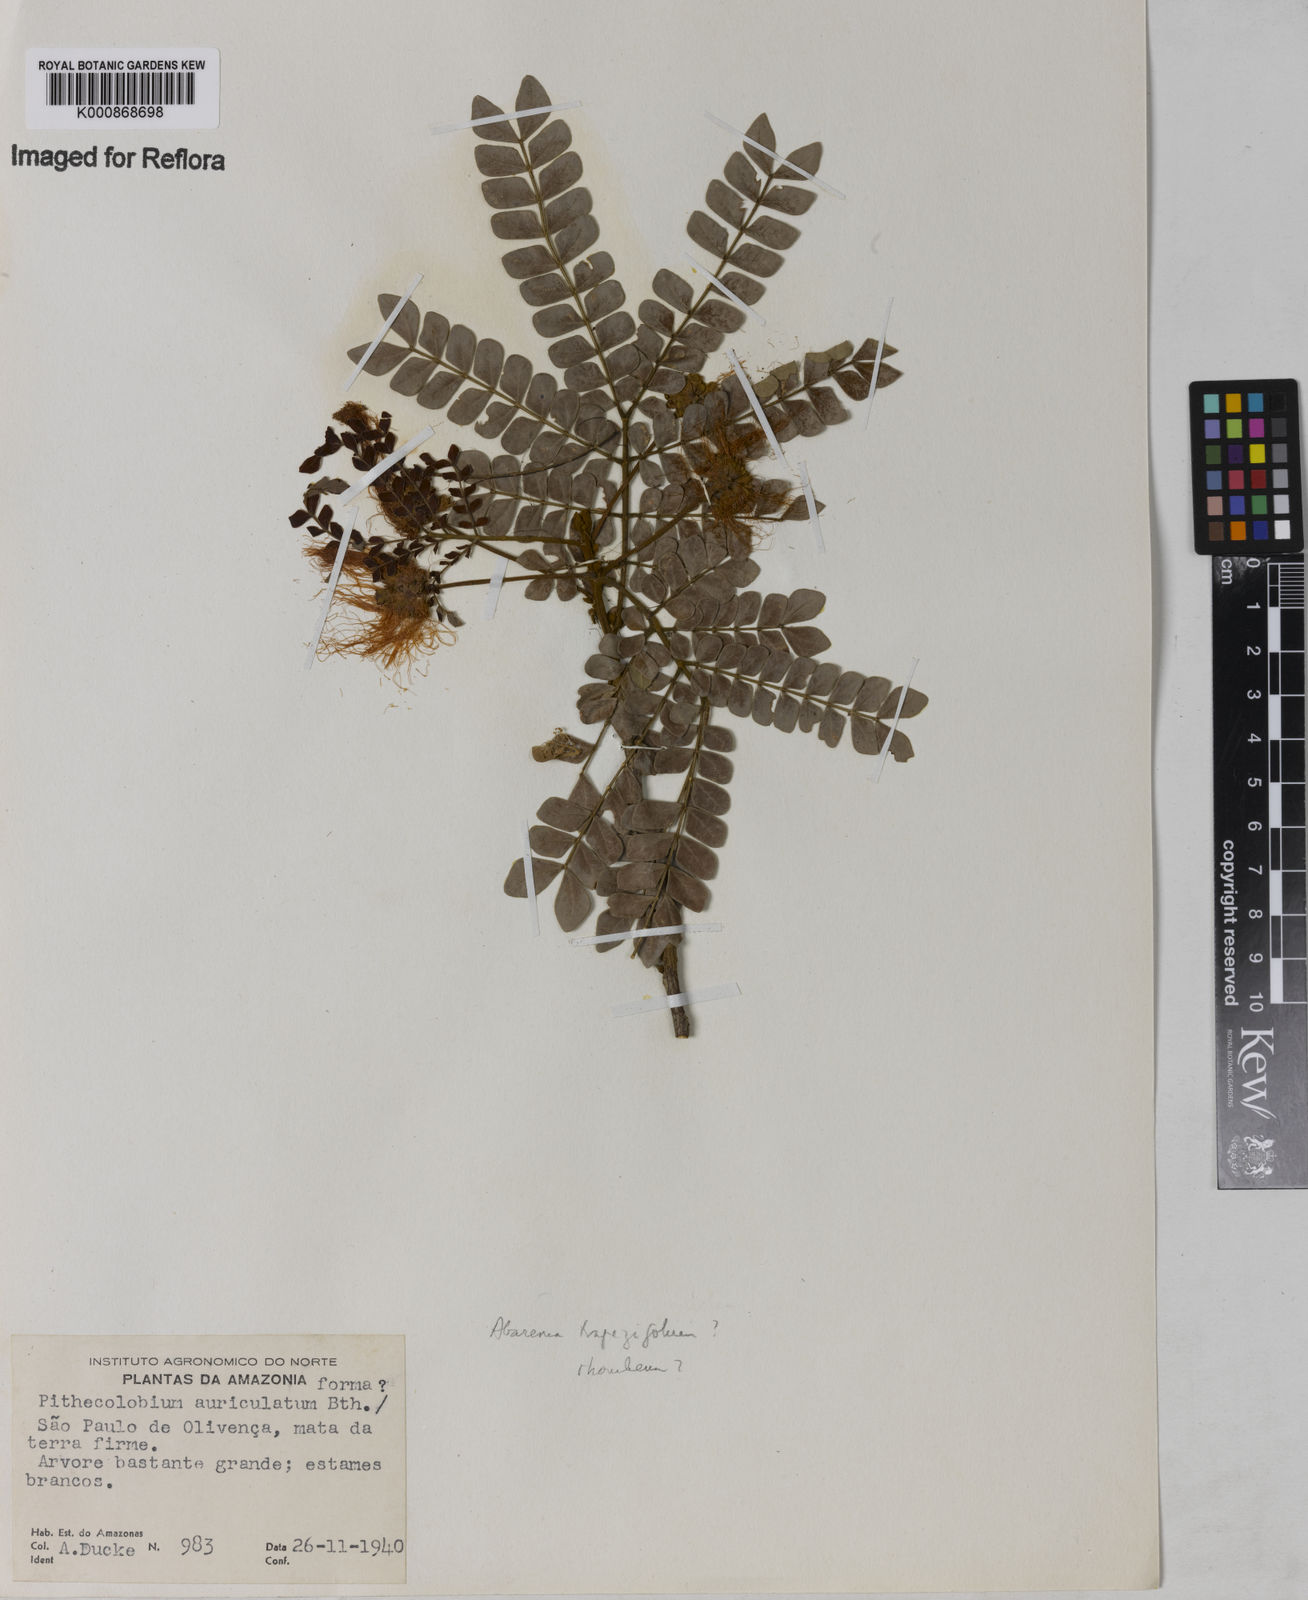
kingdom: Plantae
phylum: Tracheophyta
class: Magnoliopsida
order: Fabales
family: Fabaceae
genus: Abarema
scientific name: Abarema
